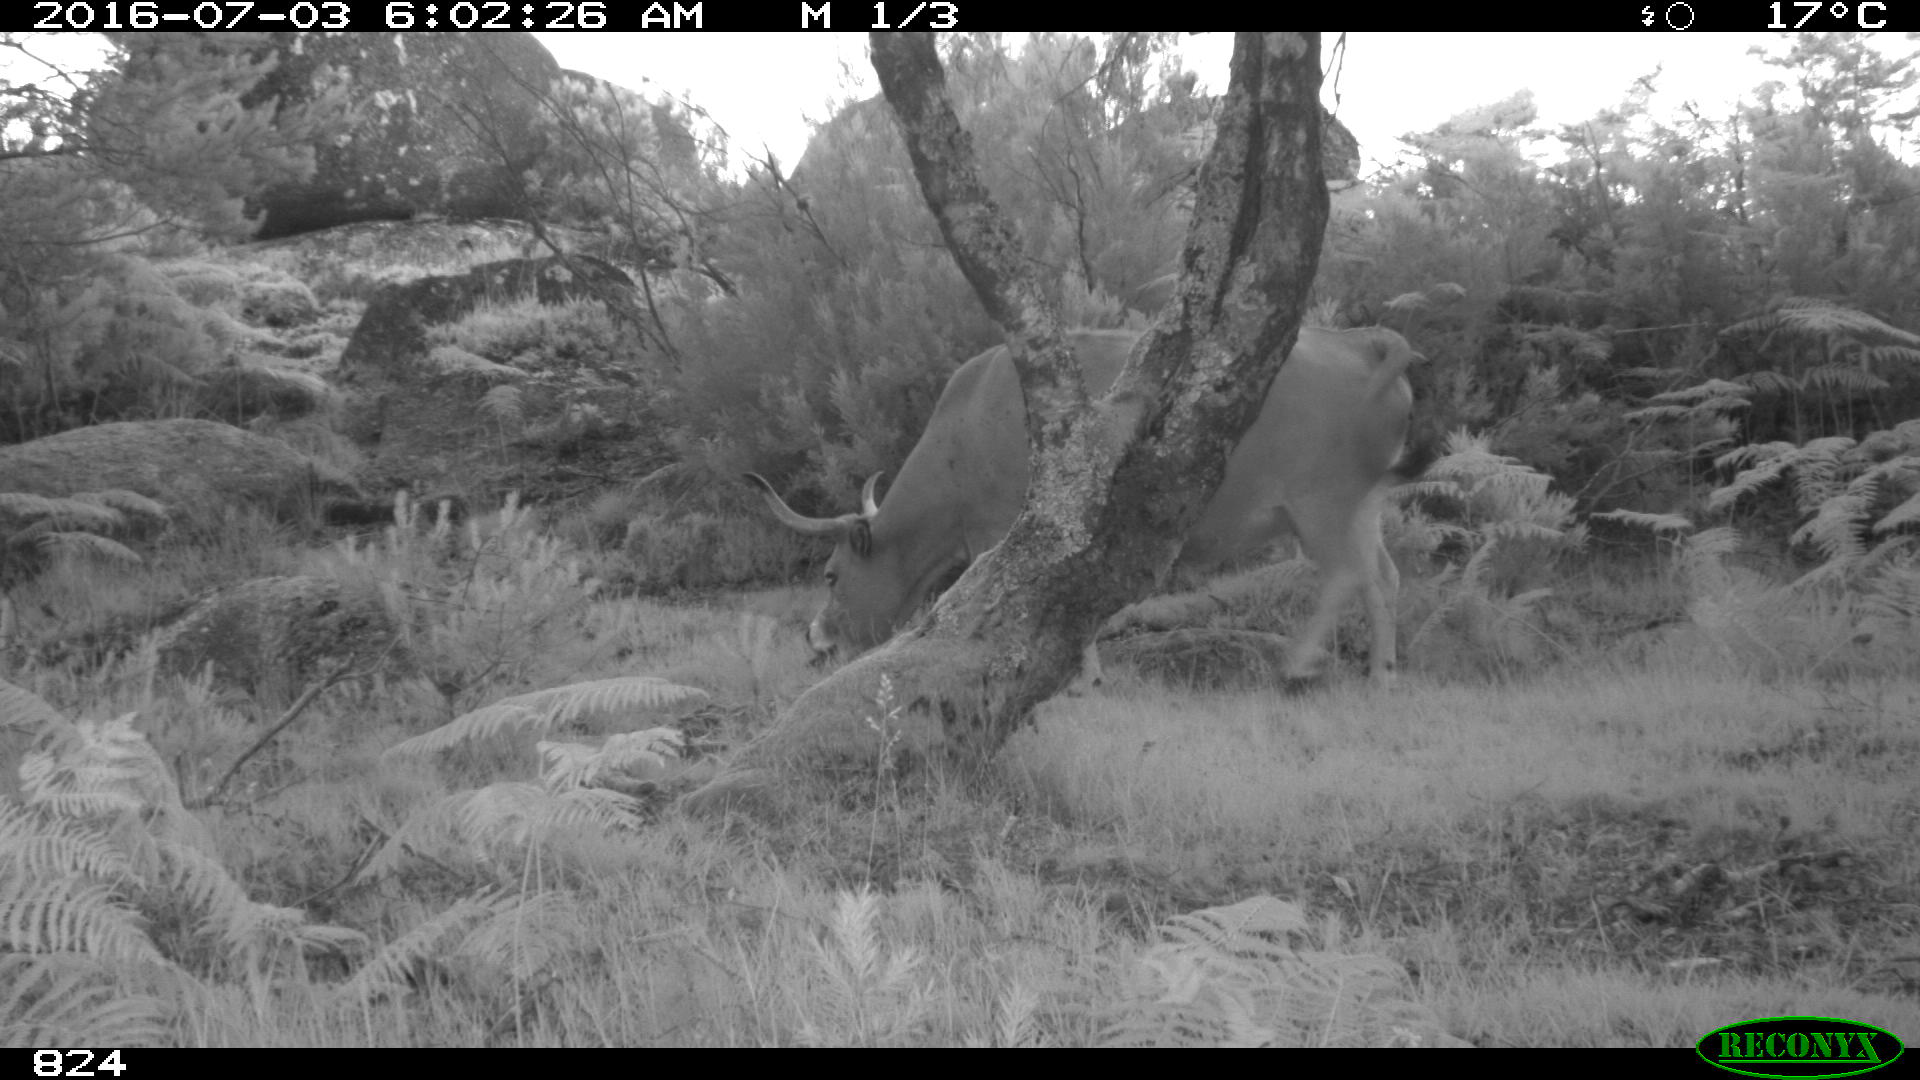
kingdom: Animalia
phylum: Chordata
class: Mammalia
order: Artiodactyla
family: Bovidae
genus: Bos
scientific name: Bos taurus
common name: Domesticated cattle
